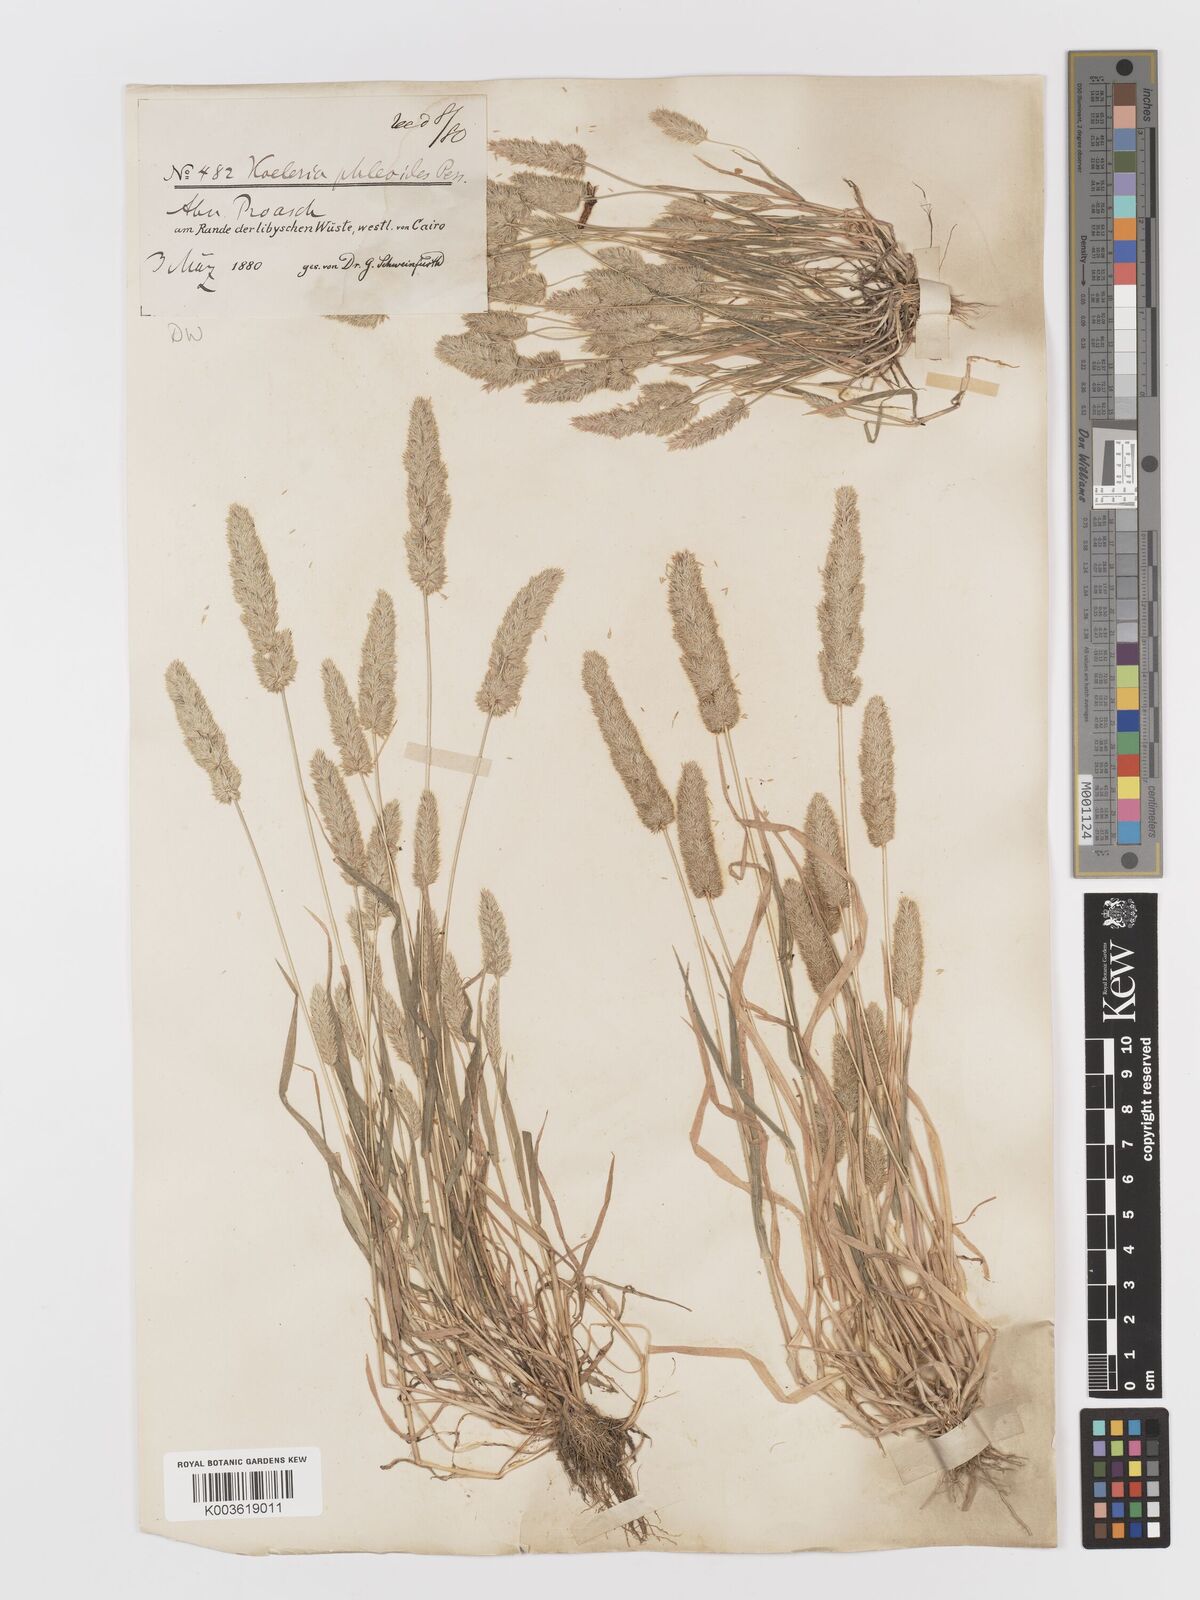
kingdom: Plantae
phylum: Tracheophyta
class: Liliopsida
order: Poales
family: Poaceae
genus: Rostraria
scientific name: Rostraria cristata
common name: Mediterranean hair-grass
